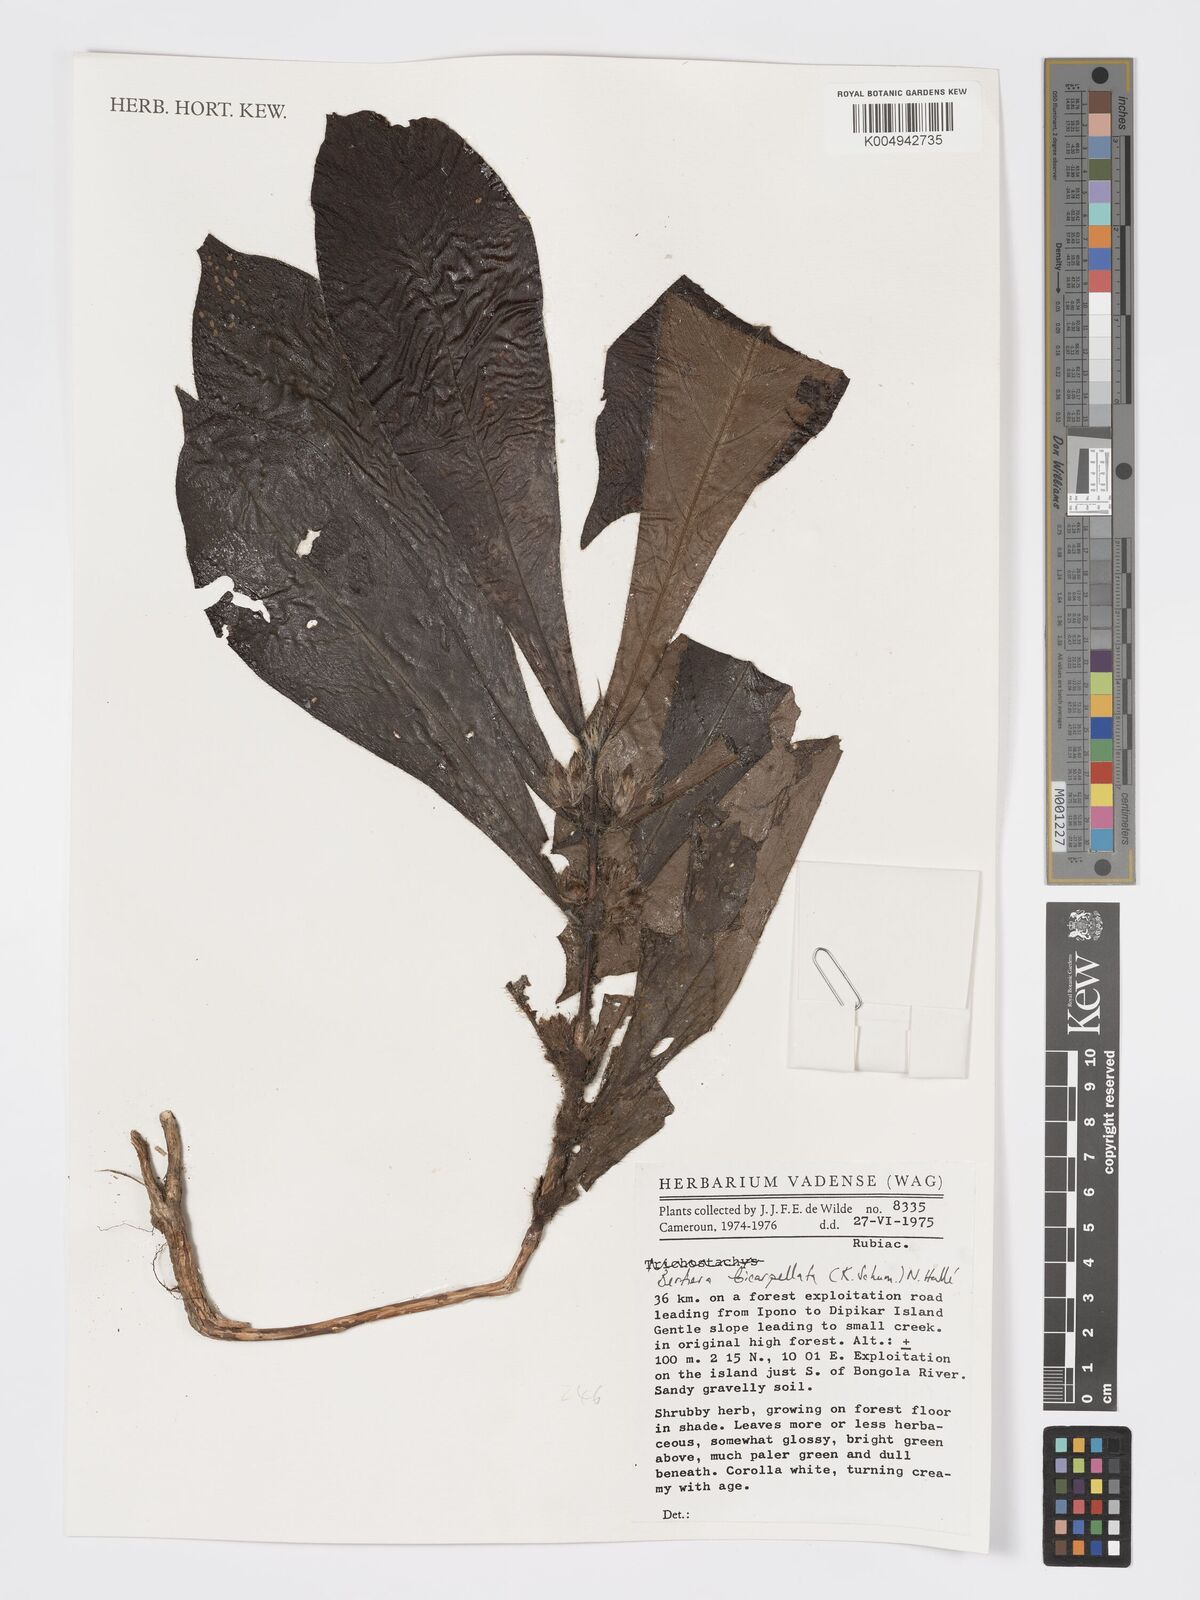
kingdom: Plantae
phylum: Tracheophyta
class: Magnoliopsida
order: Gentianales
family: Rubiaceae
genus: Bertiera
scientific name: Bertiera bicarpellata
